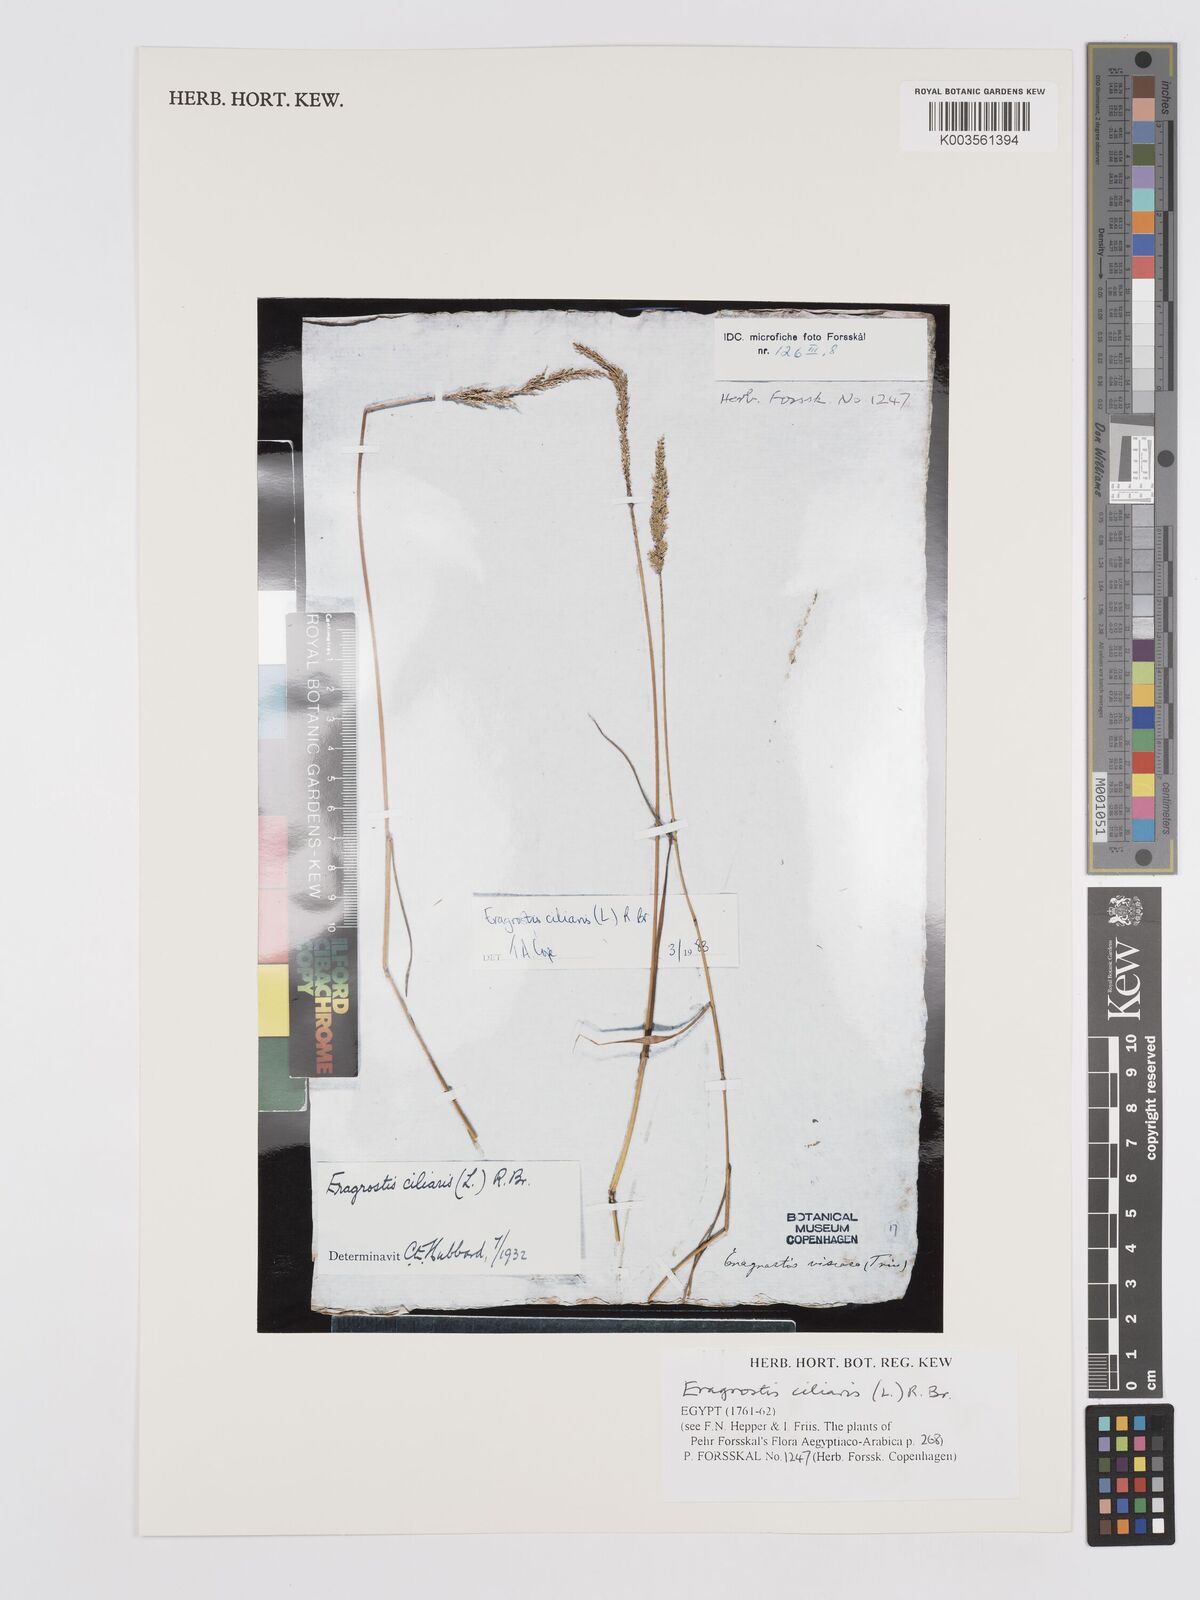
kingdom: Plantae
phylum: Tracheophyta
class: Liliopsida
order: Poales
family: Poaceae
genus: Eragrostis
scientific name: Eragrostis ciliaris
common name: Gophertail lovegrass
